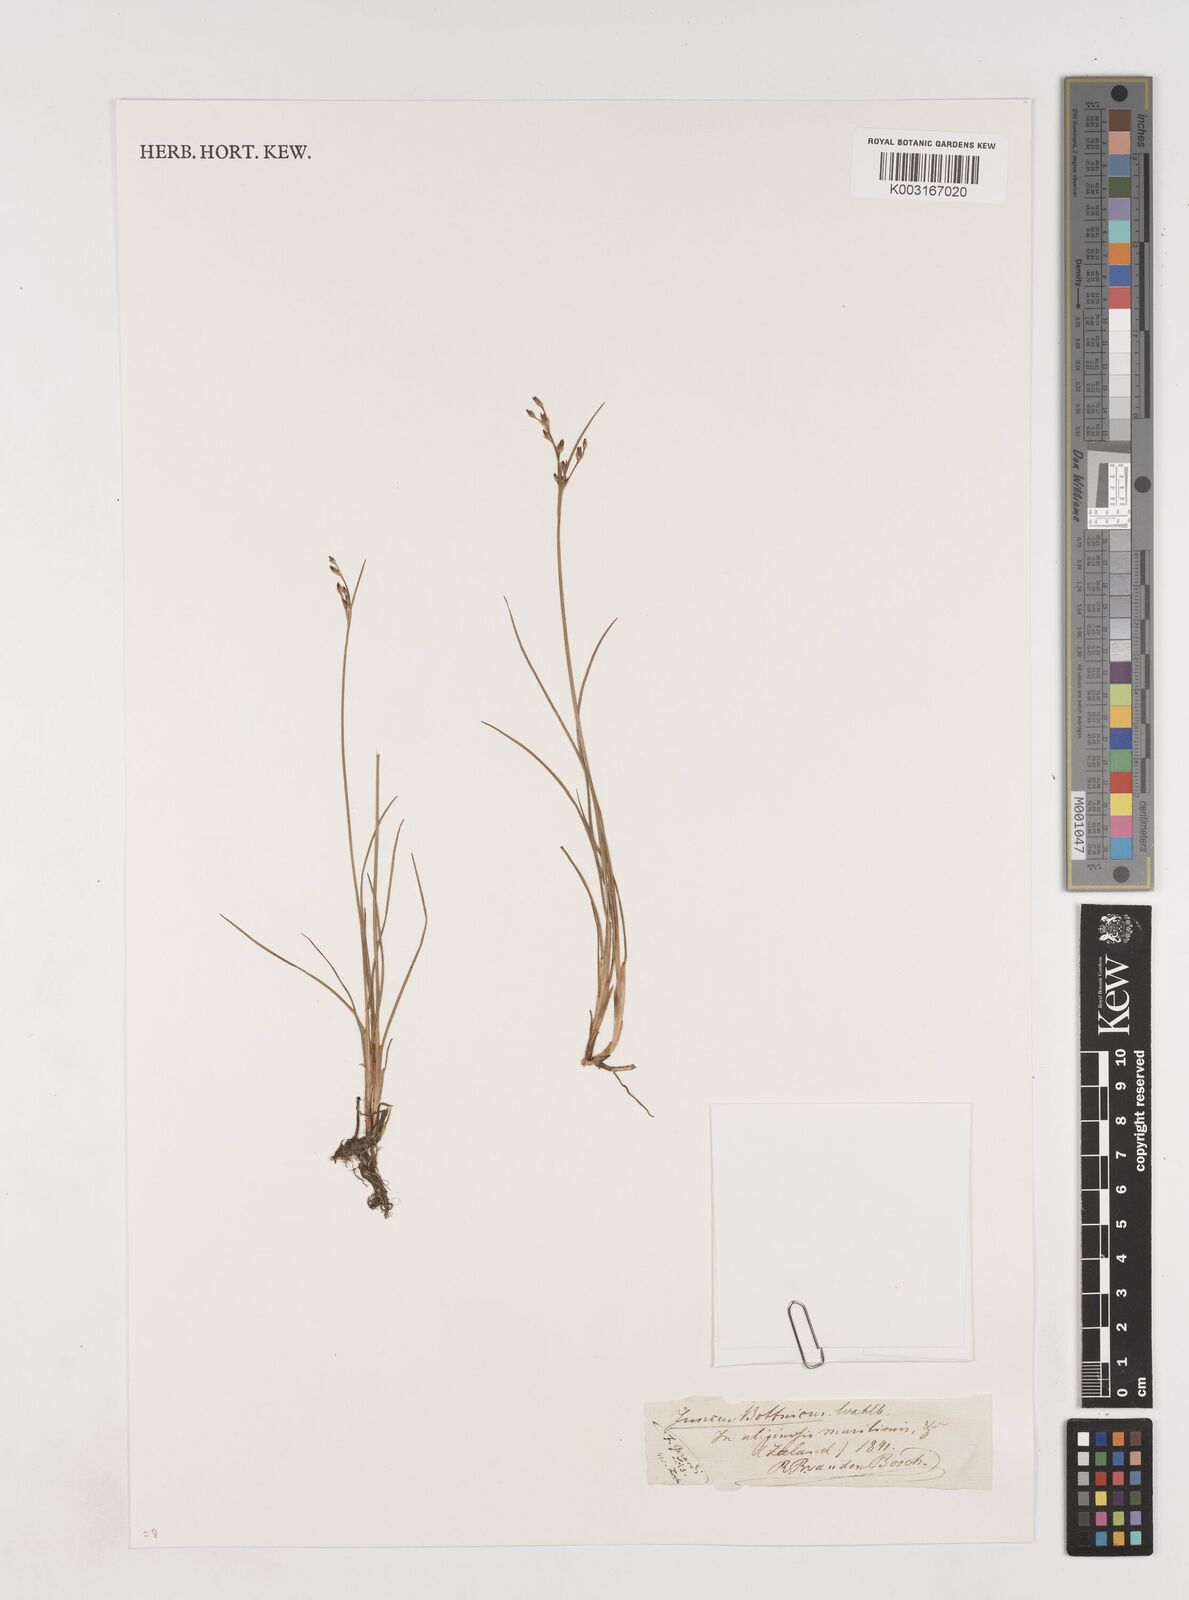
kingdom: Plantae
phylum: Tracheophyta
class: Liliopsida
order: Poales
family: Juncaceae
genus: Juncus
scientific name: Juncus gerardi
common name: Saltmarsh rush
